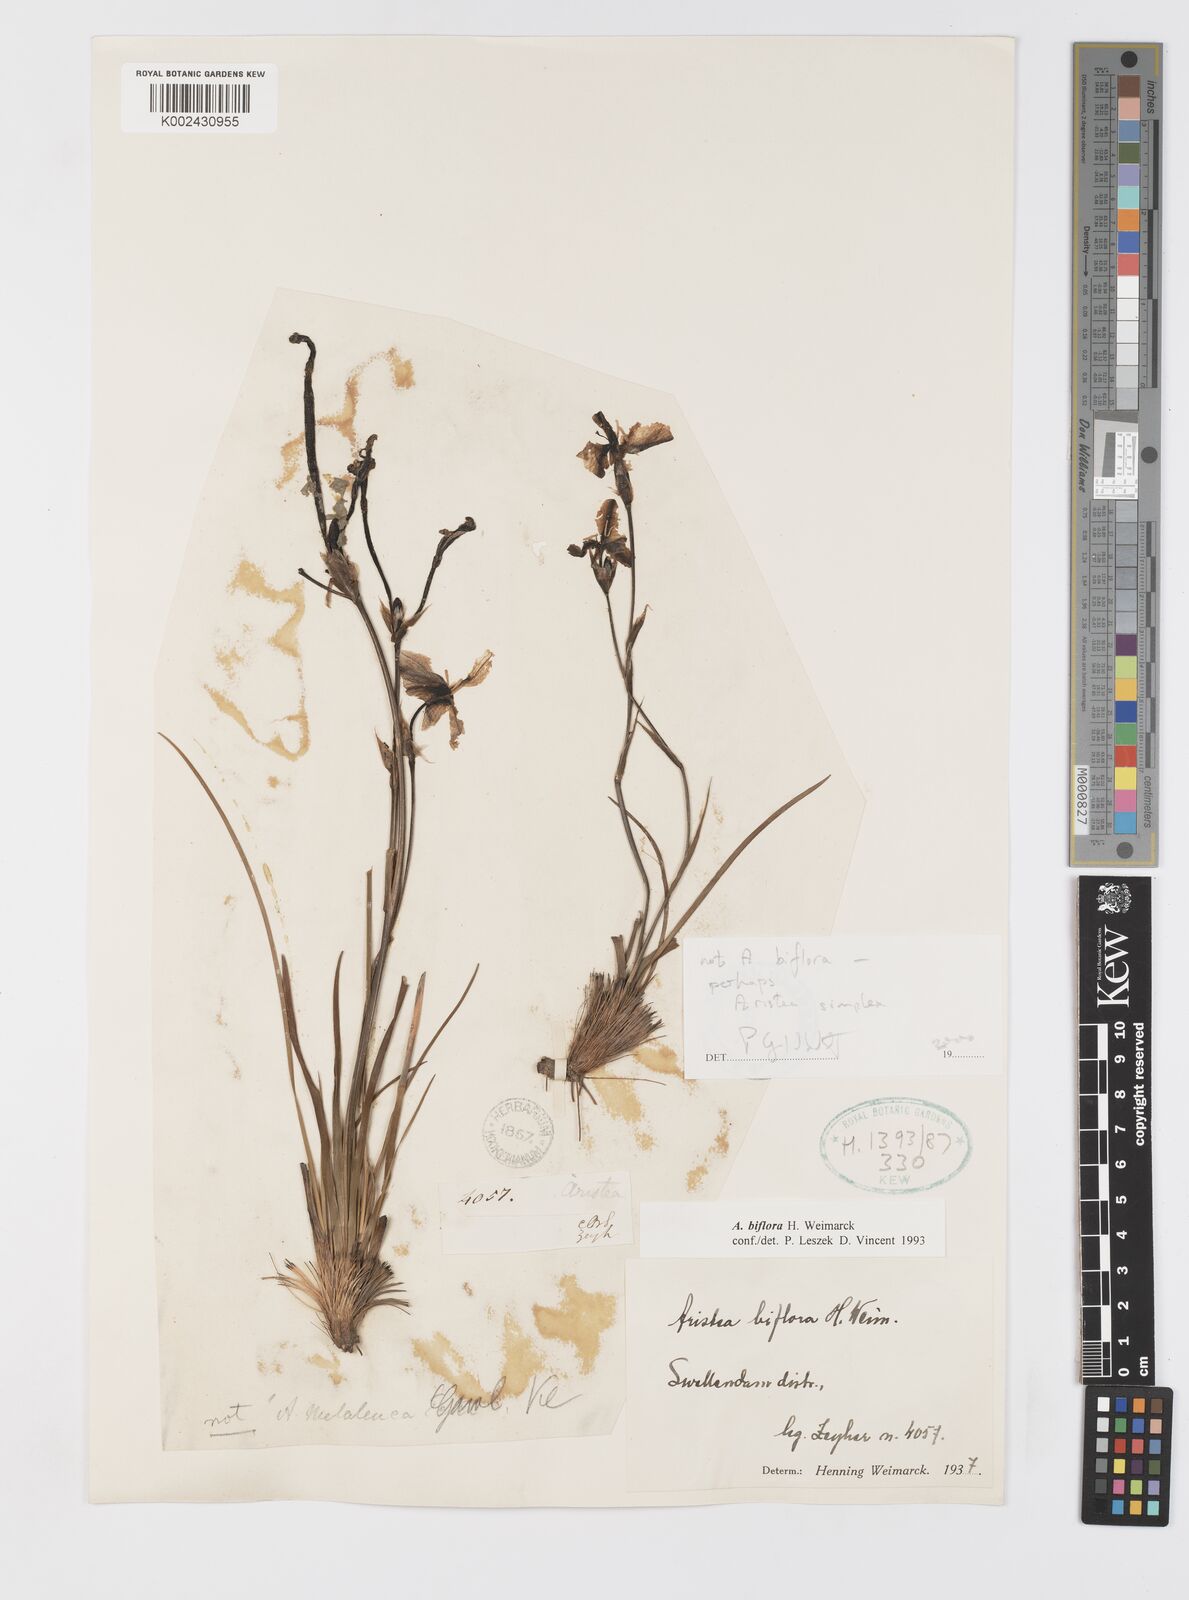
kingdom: Plantae
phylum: Tracheophyta
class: Liliopsida
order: Asparagales
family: Iridaceae
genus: Aristea
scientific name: Aristea simplex
